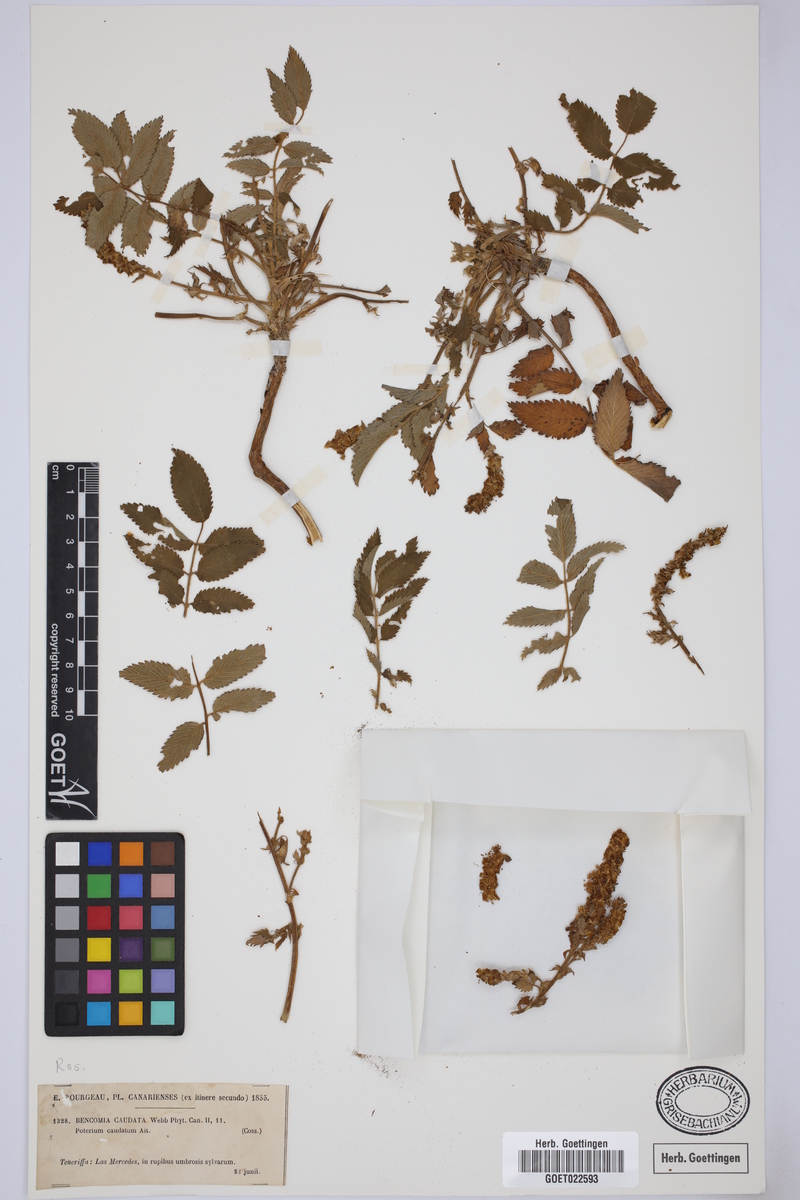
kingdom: Plantae
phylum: Tracheophyta
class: Magnoliopsida
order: Rosales
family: Rosaceae
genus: Bencomia
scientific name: Bencomia caudata
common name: Bencomia
